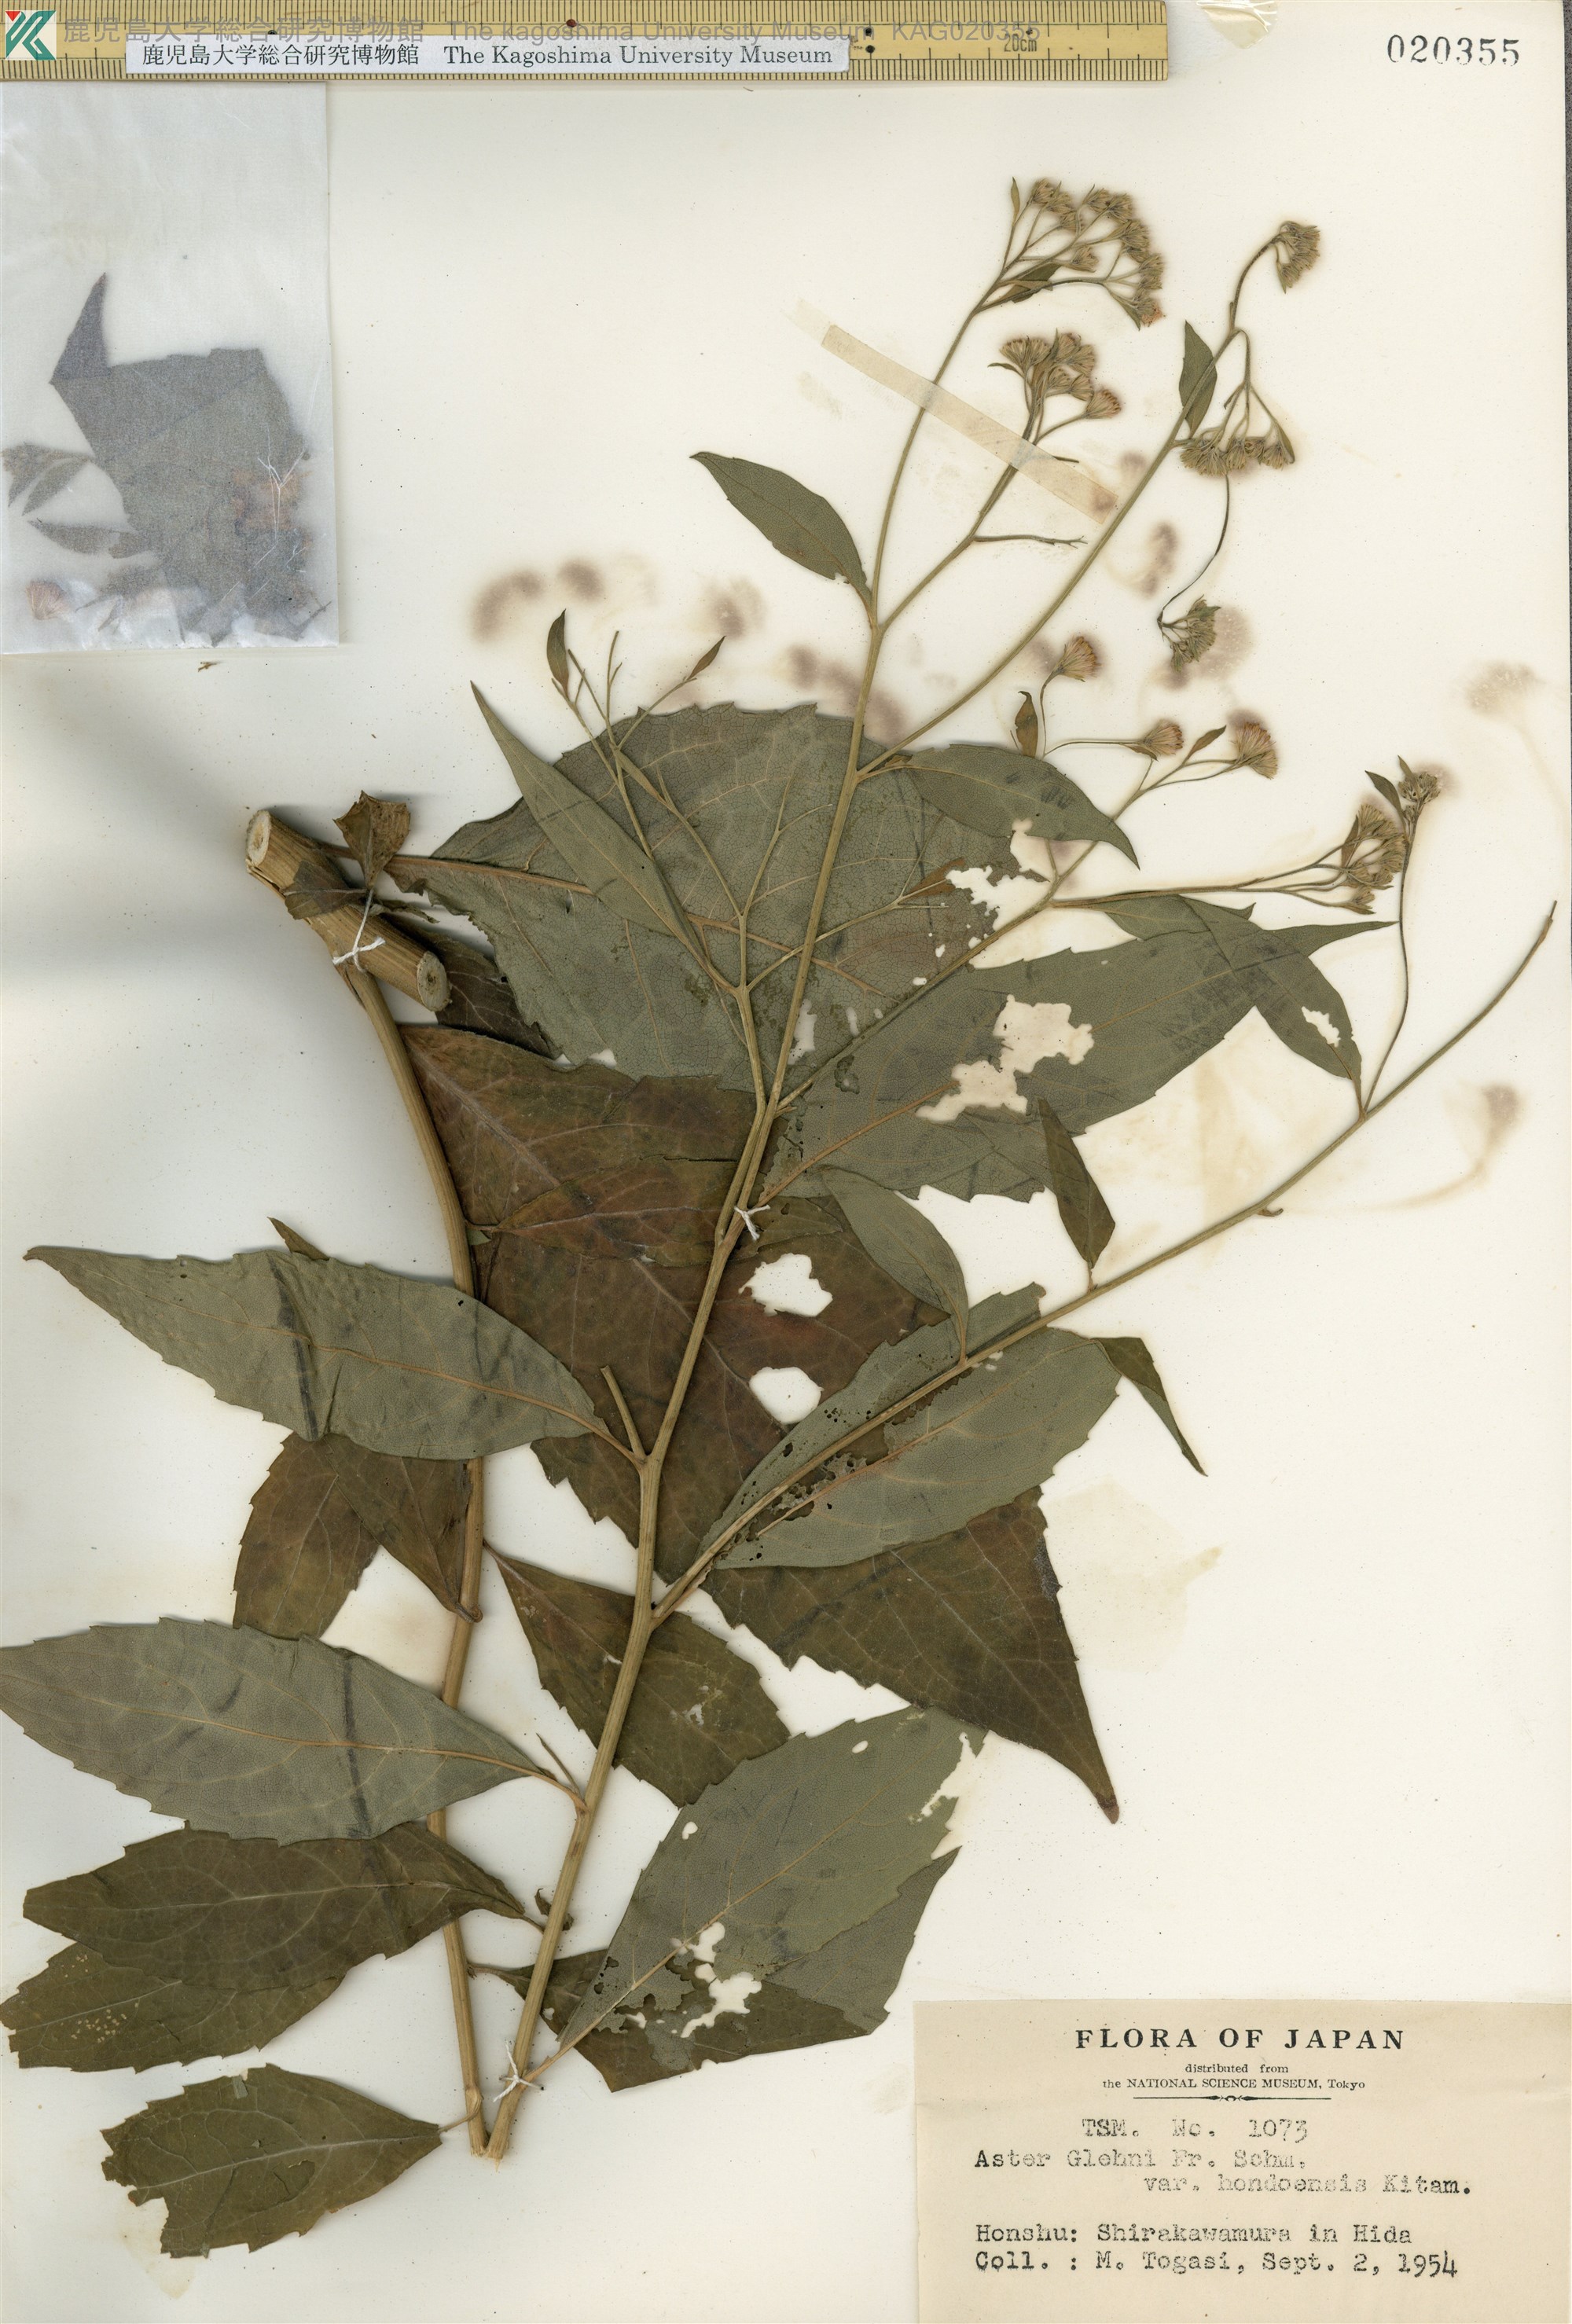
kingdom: Plantae
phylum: Tracheophyta
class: Magnoliopsida
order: Asterales
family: Asteraceae
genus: Kitamuria
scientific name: Kitamuria glehnii
